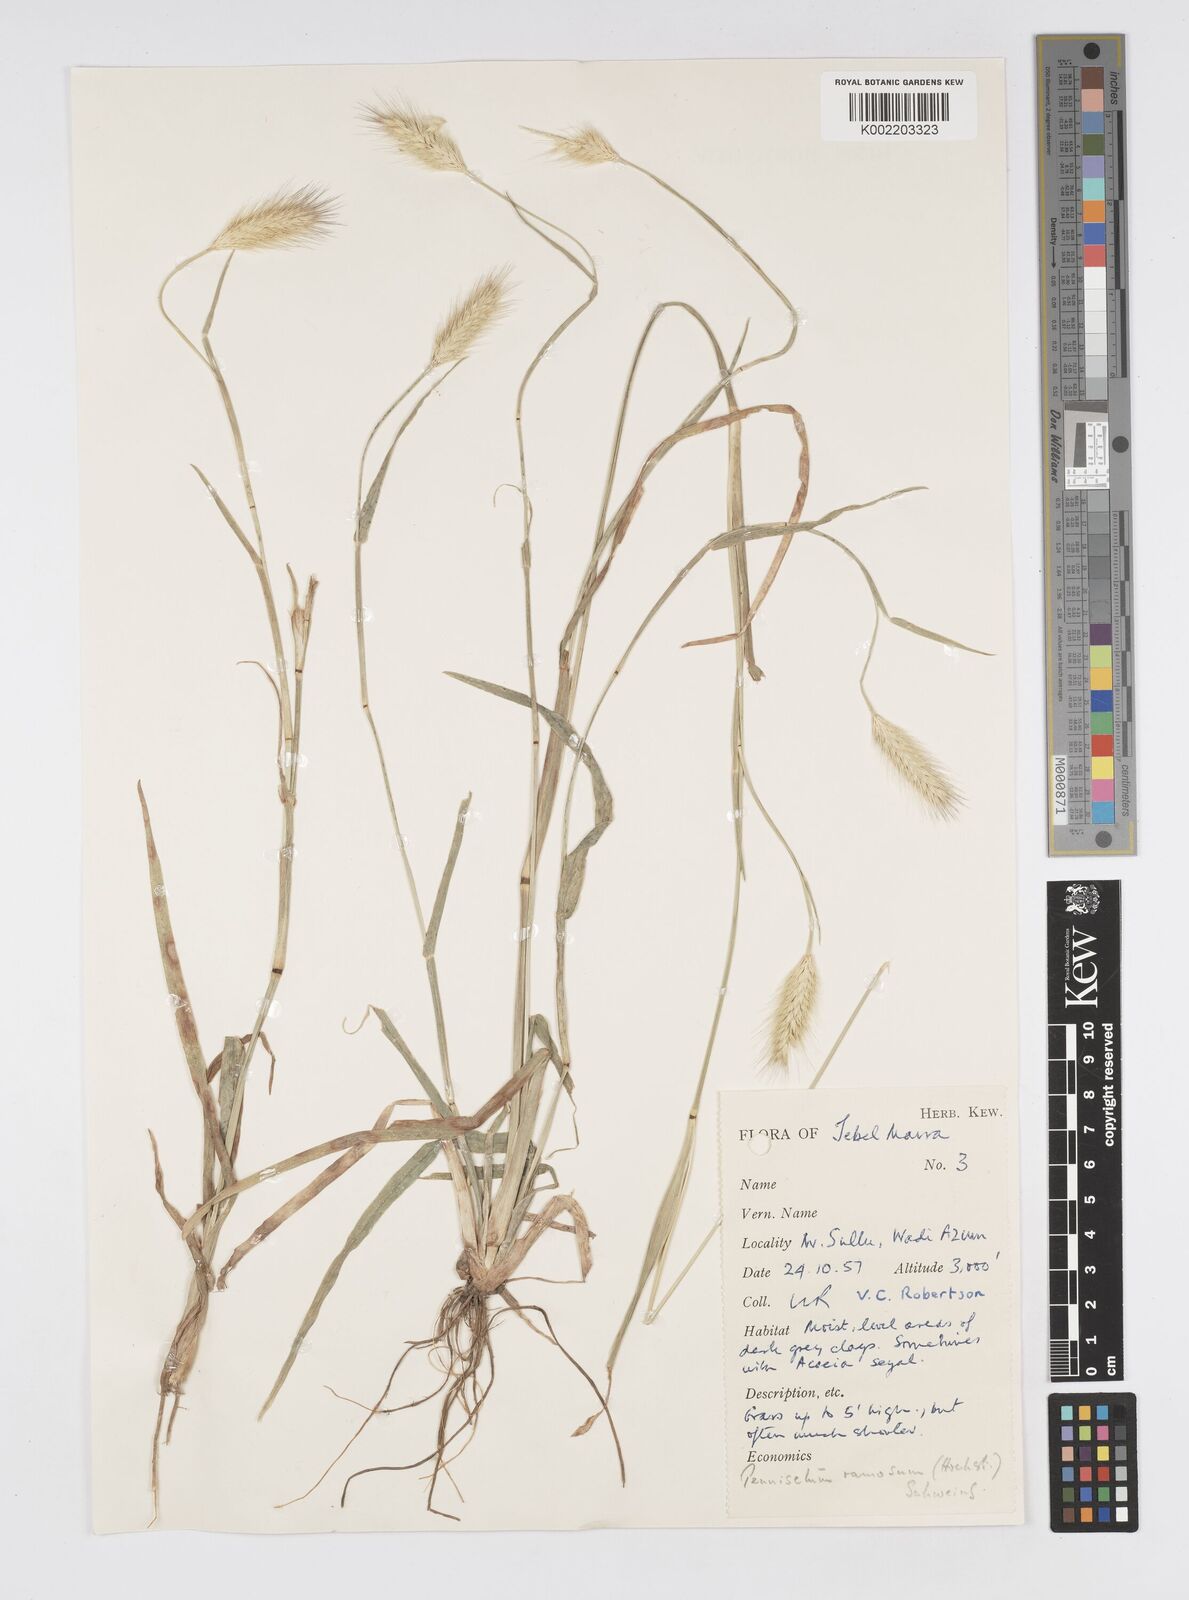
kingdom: Plantae
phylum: Tracheophyta
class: Liliopsida
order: Poales
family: Poaceae
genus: Cenchrus
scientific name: Cenchrus ramosus
